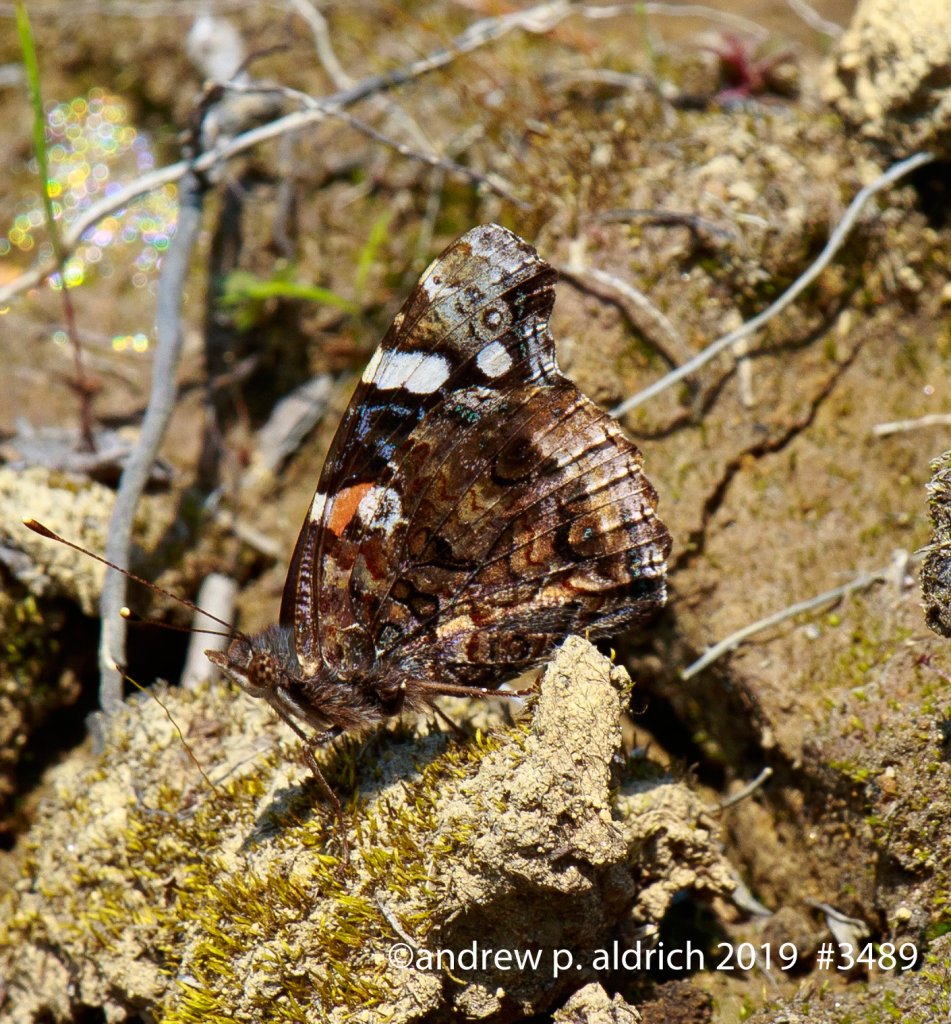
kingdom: Animalia
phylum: Arthropoda
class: Insecta
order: Lepidoptera
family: Nymphalidae
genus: Vanessa
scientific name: Vanessa atalanta
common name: Red Admiral
